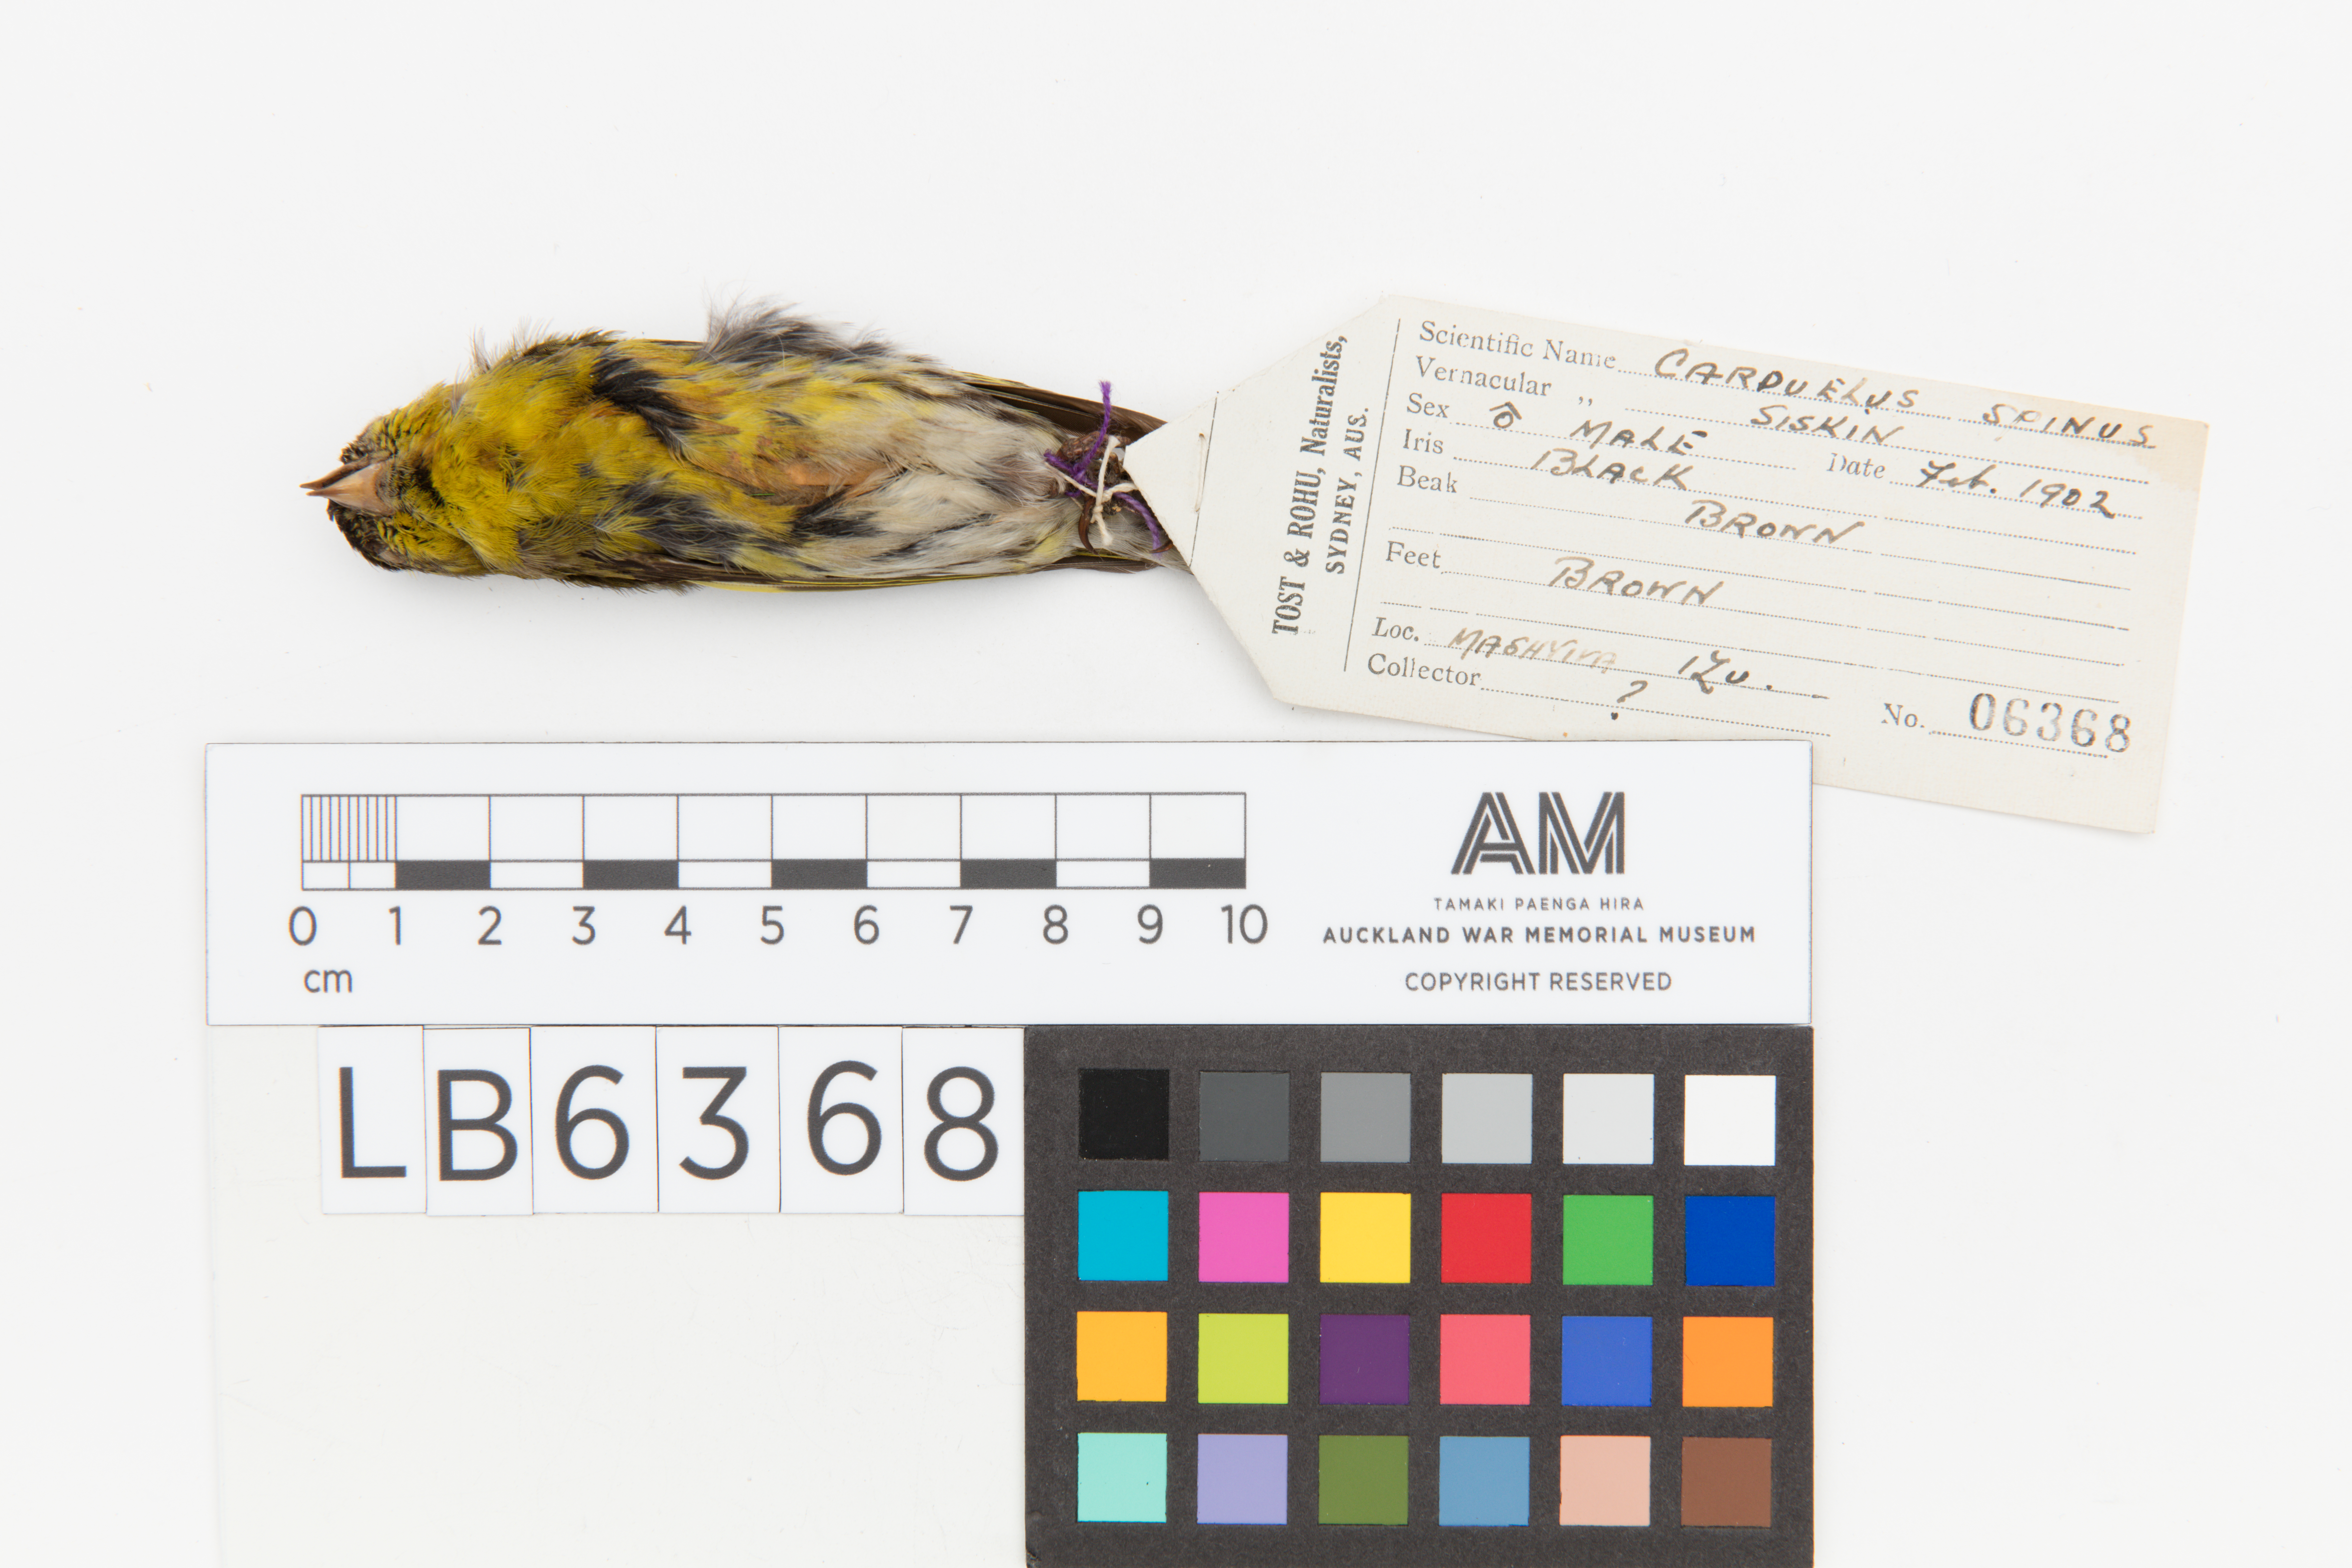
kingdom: Animalia
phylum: Chordata
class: Aves
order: Passeriformes
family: Fringillidae
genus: Spinus
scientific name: Spinus spinus
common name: Eurasian siskin
